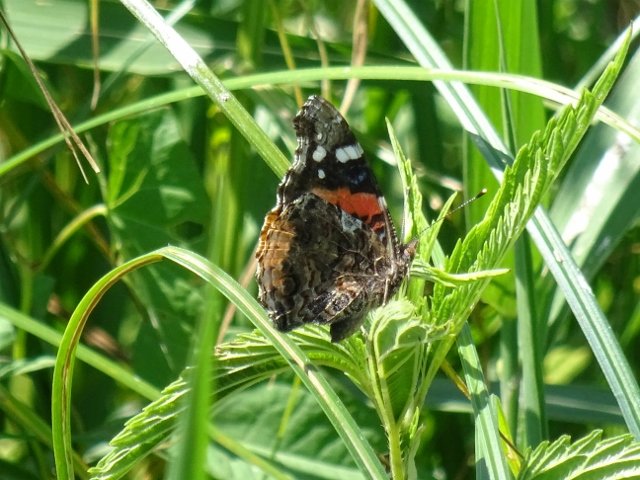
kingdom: Animalia
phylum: Arthropoda
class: Insecta
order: Lepidoptera
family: Nymphalidae
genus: Vanessa
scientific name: Vanessa atalanta
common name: Red Admiral
